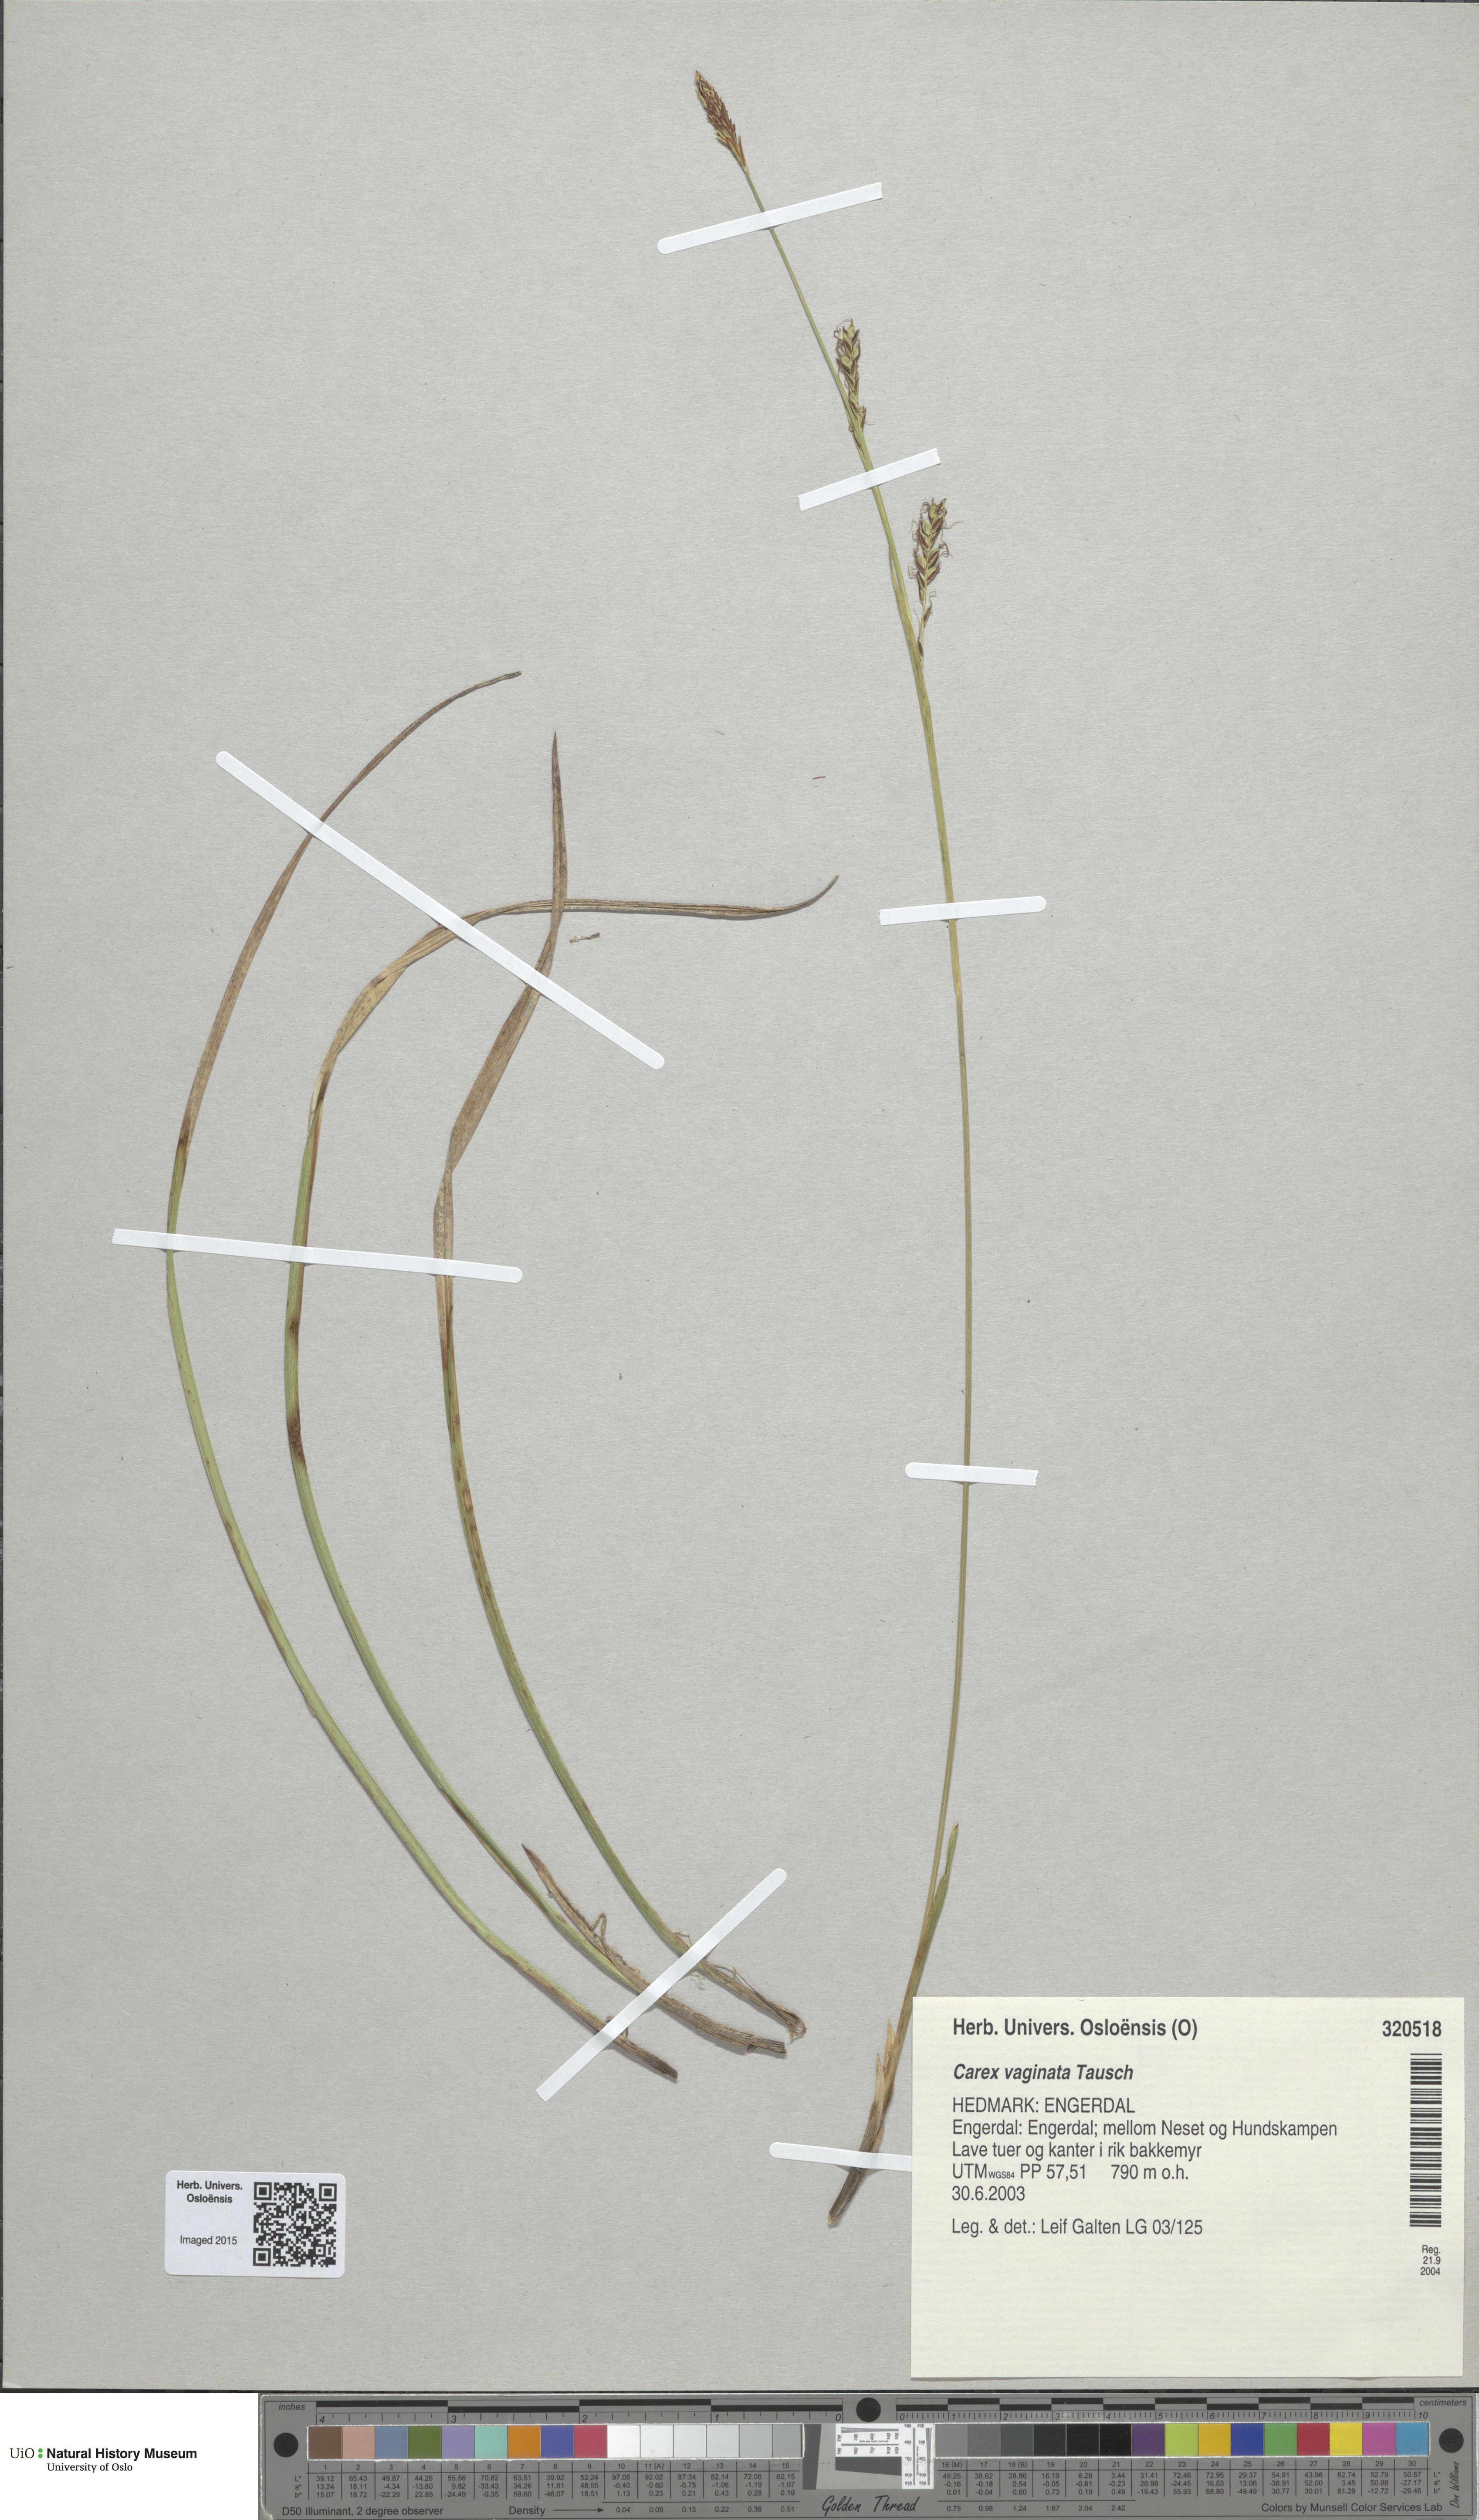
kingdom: Plantae
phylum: Tracheophyta
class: Liliopsida
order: Poales
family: Cyperaceae
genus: Carex
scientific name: Carex vaginata
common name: Sheathed sedge
